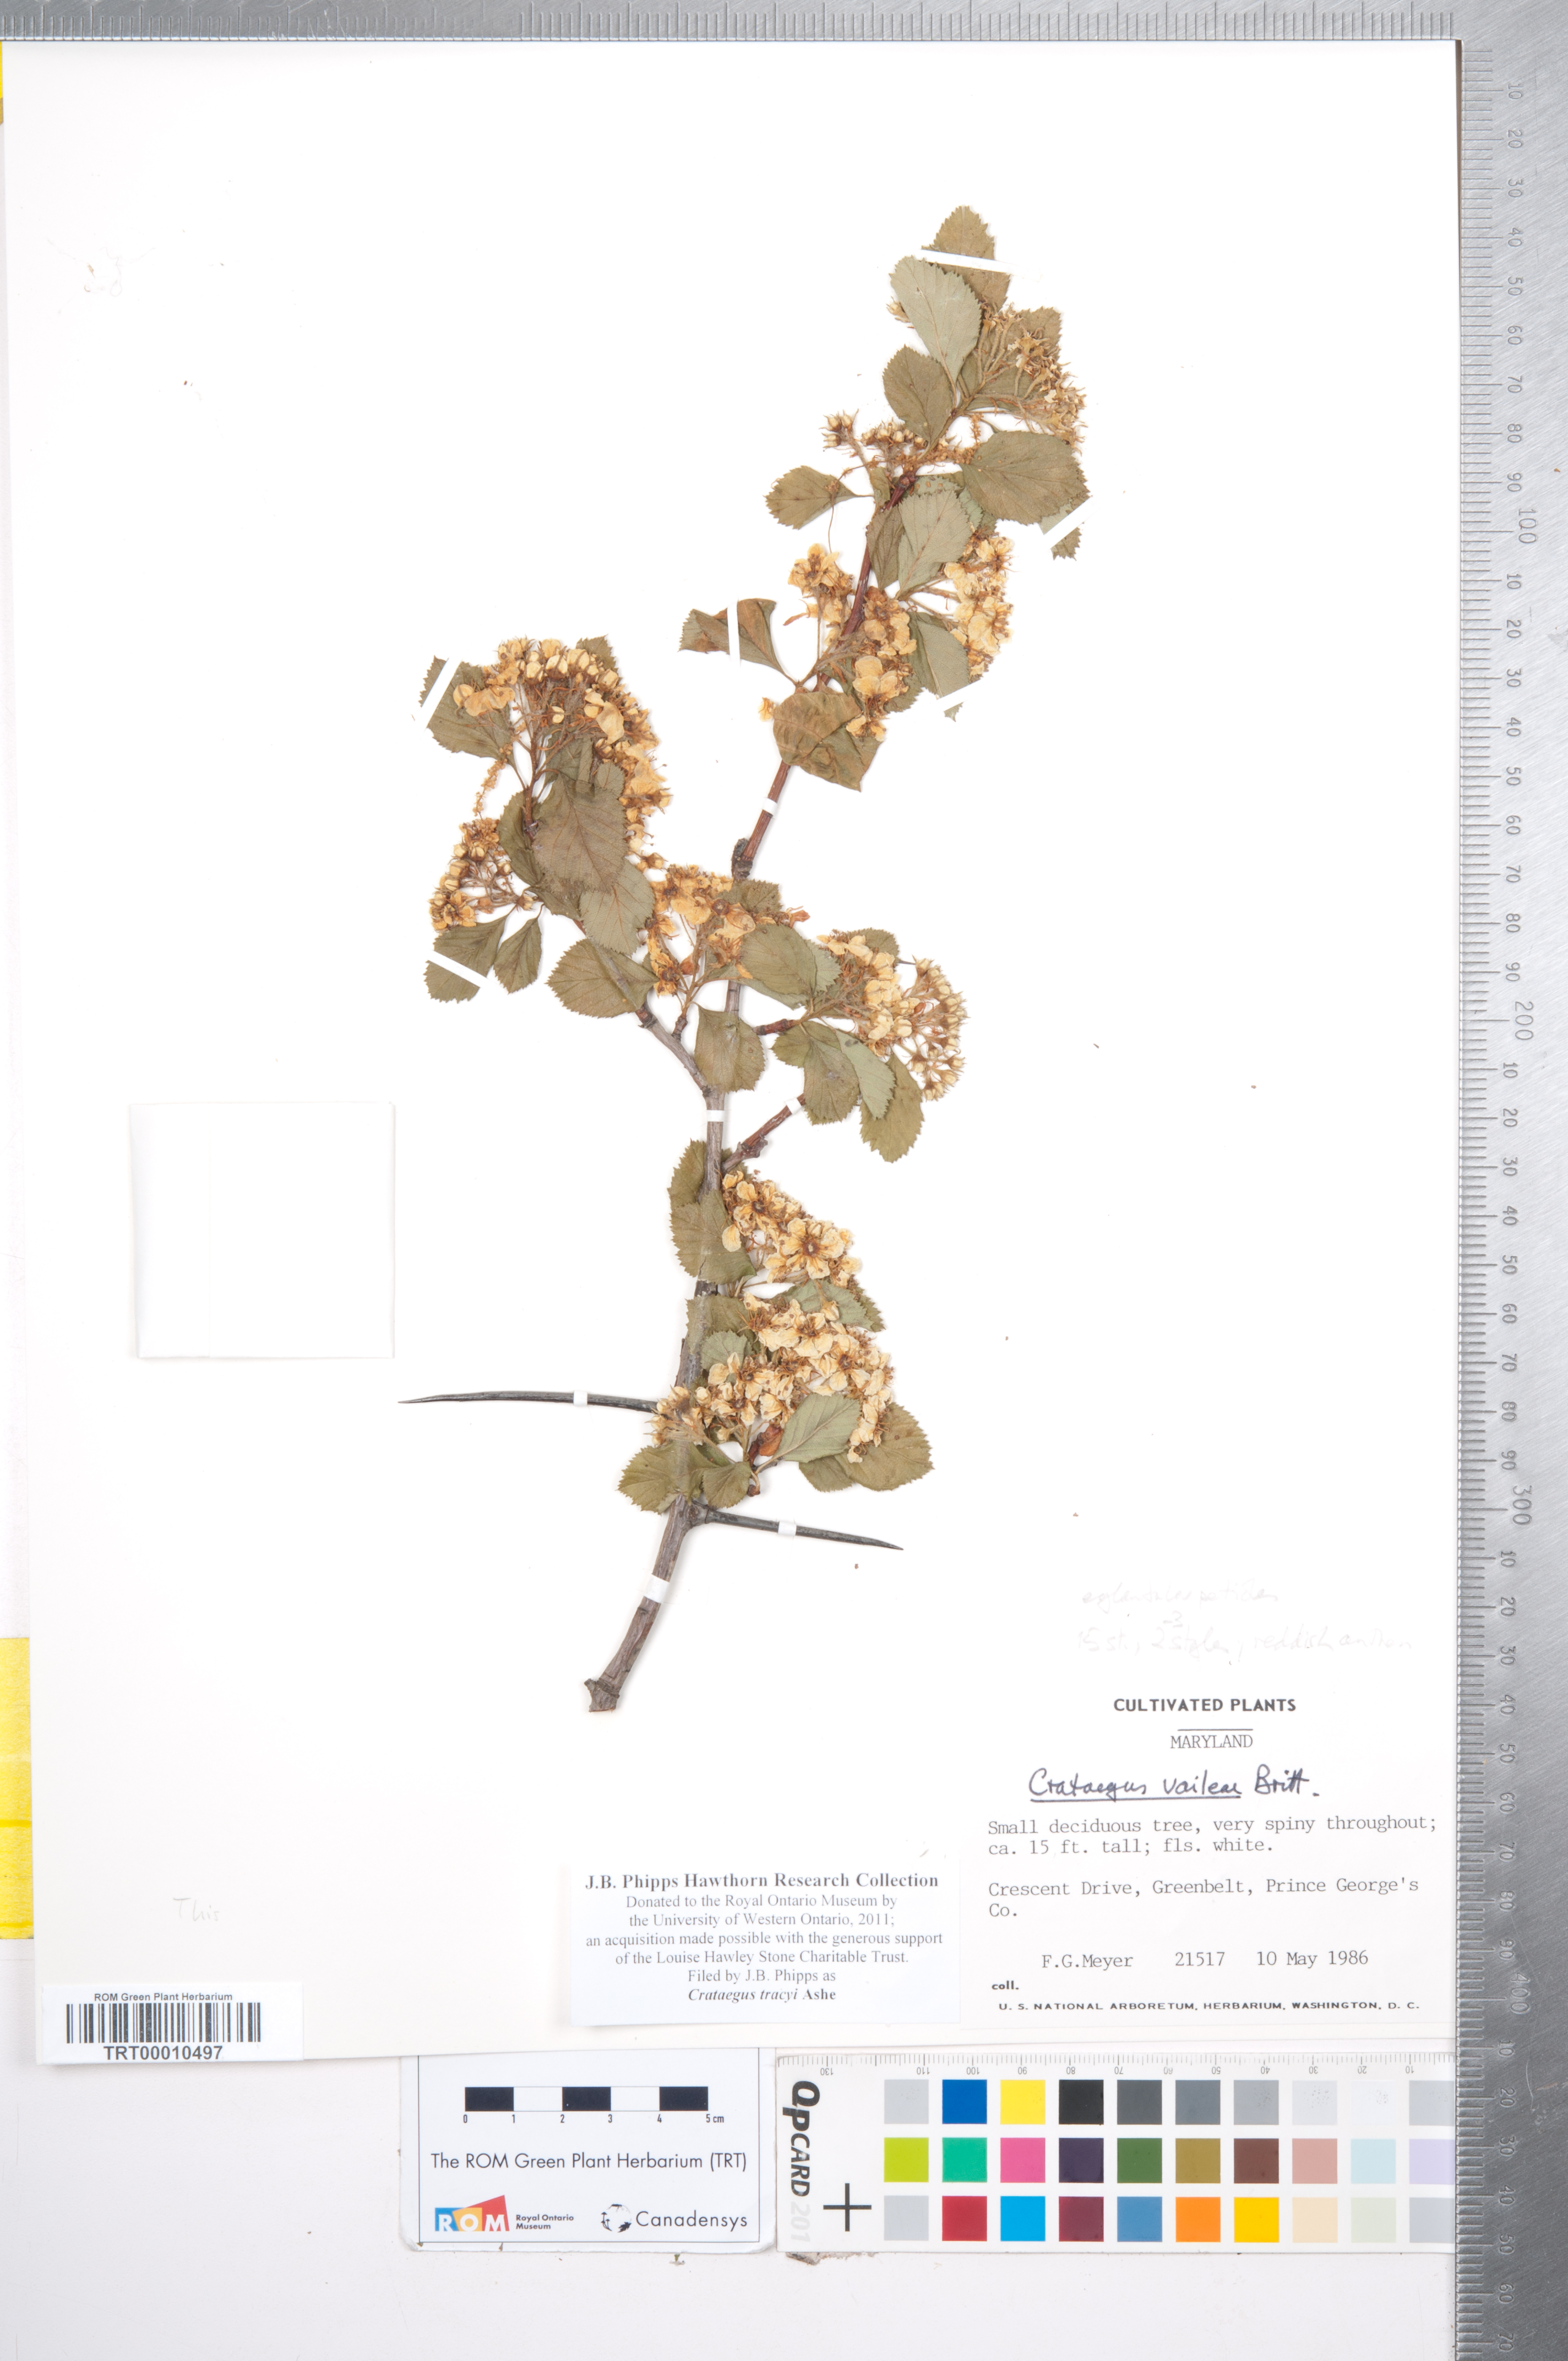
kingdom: Plantae
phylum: Tracheophyta
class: Magnoliopsida
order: Rosales
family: Rosaceae
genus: Crataegus
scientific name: Crataegus tracyi
